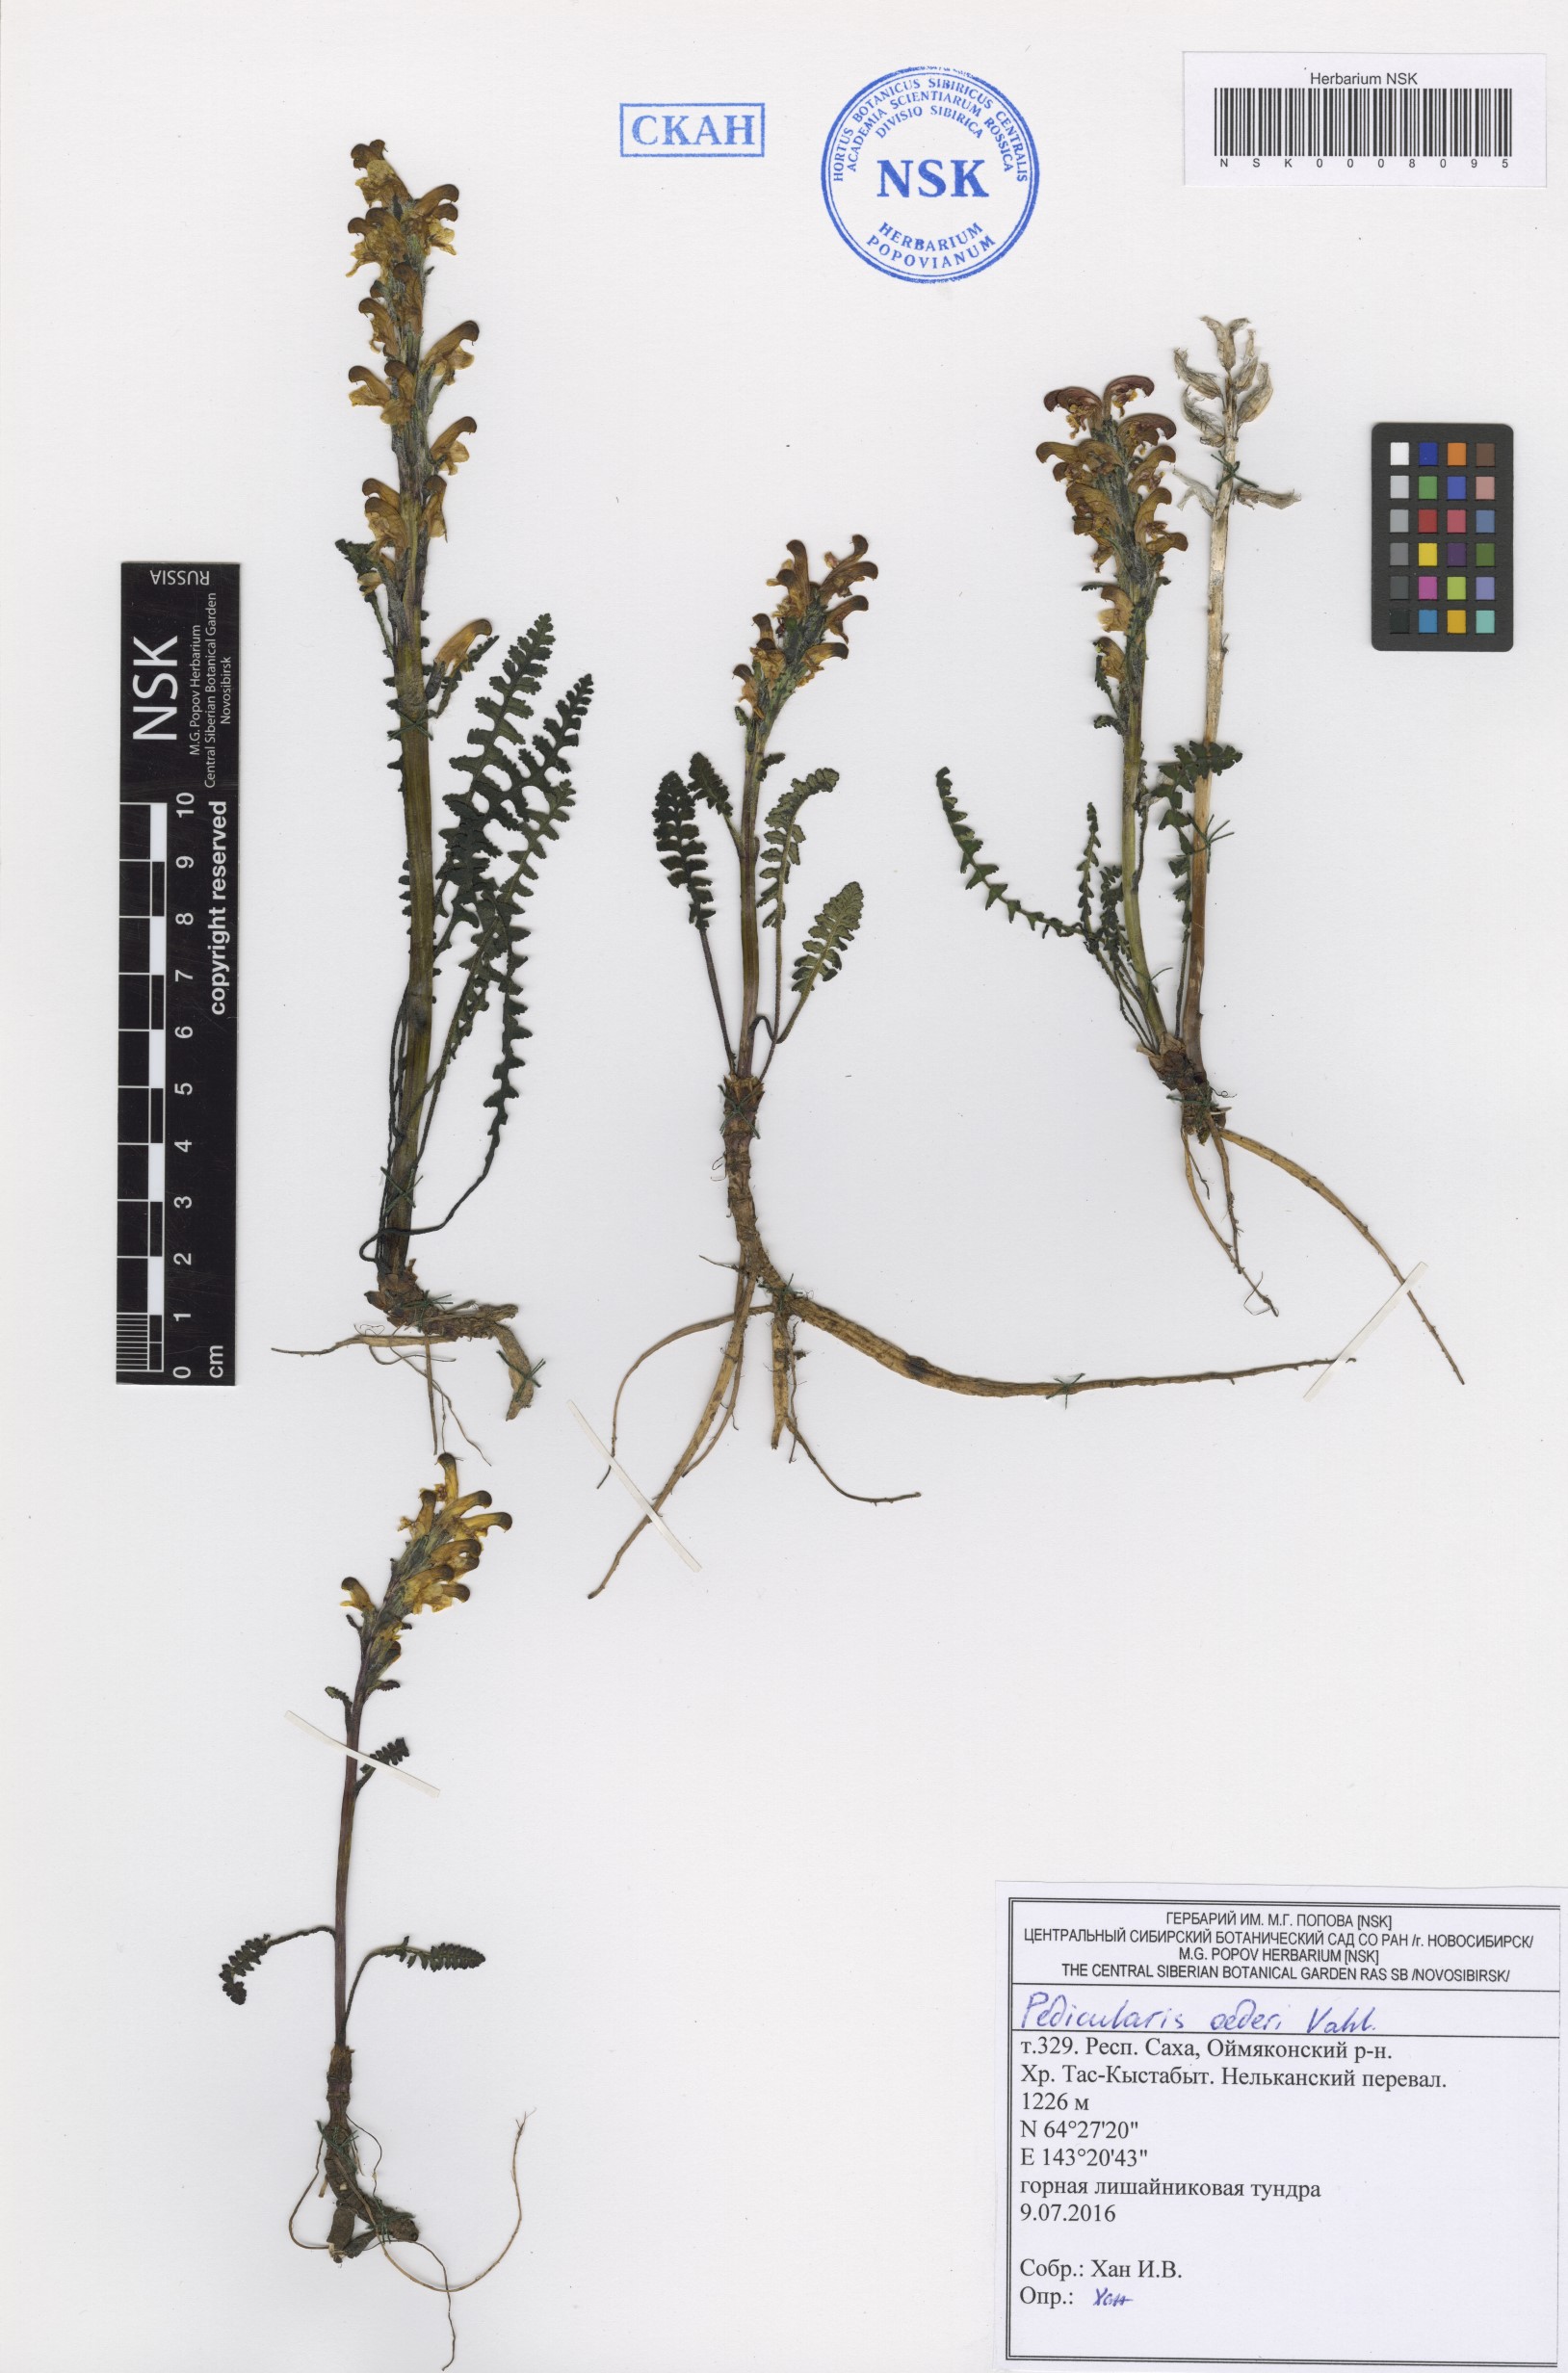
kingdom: Plantae
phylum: Tracheophyta
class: Magnoliopsida
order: Lamiales
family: Orobanchaceae
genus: Pedicularis
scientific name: Pedicularis oederi
